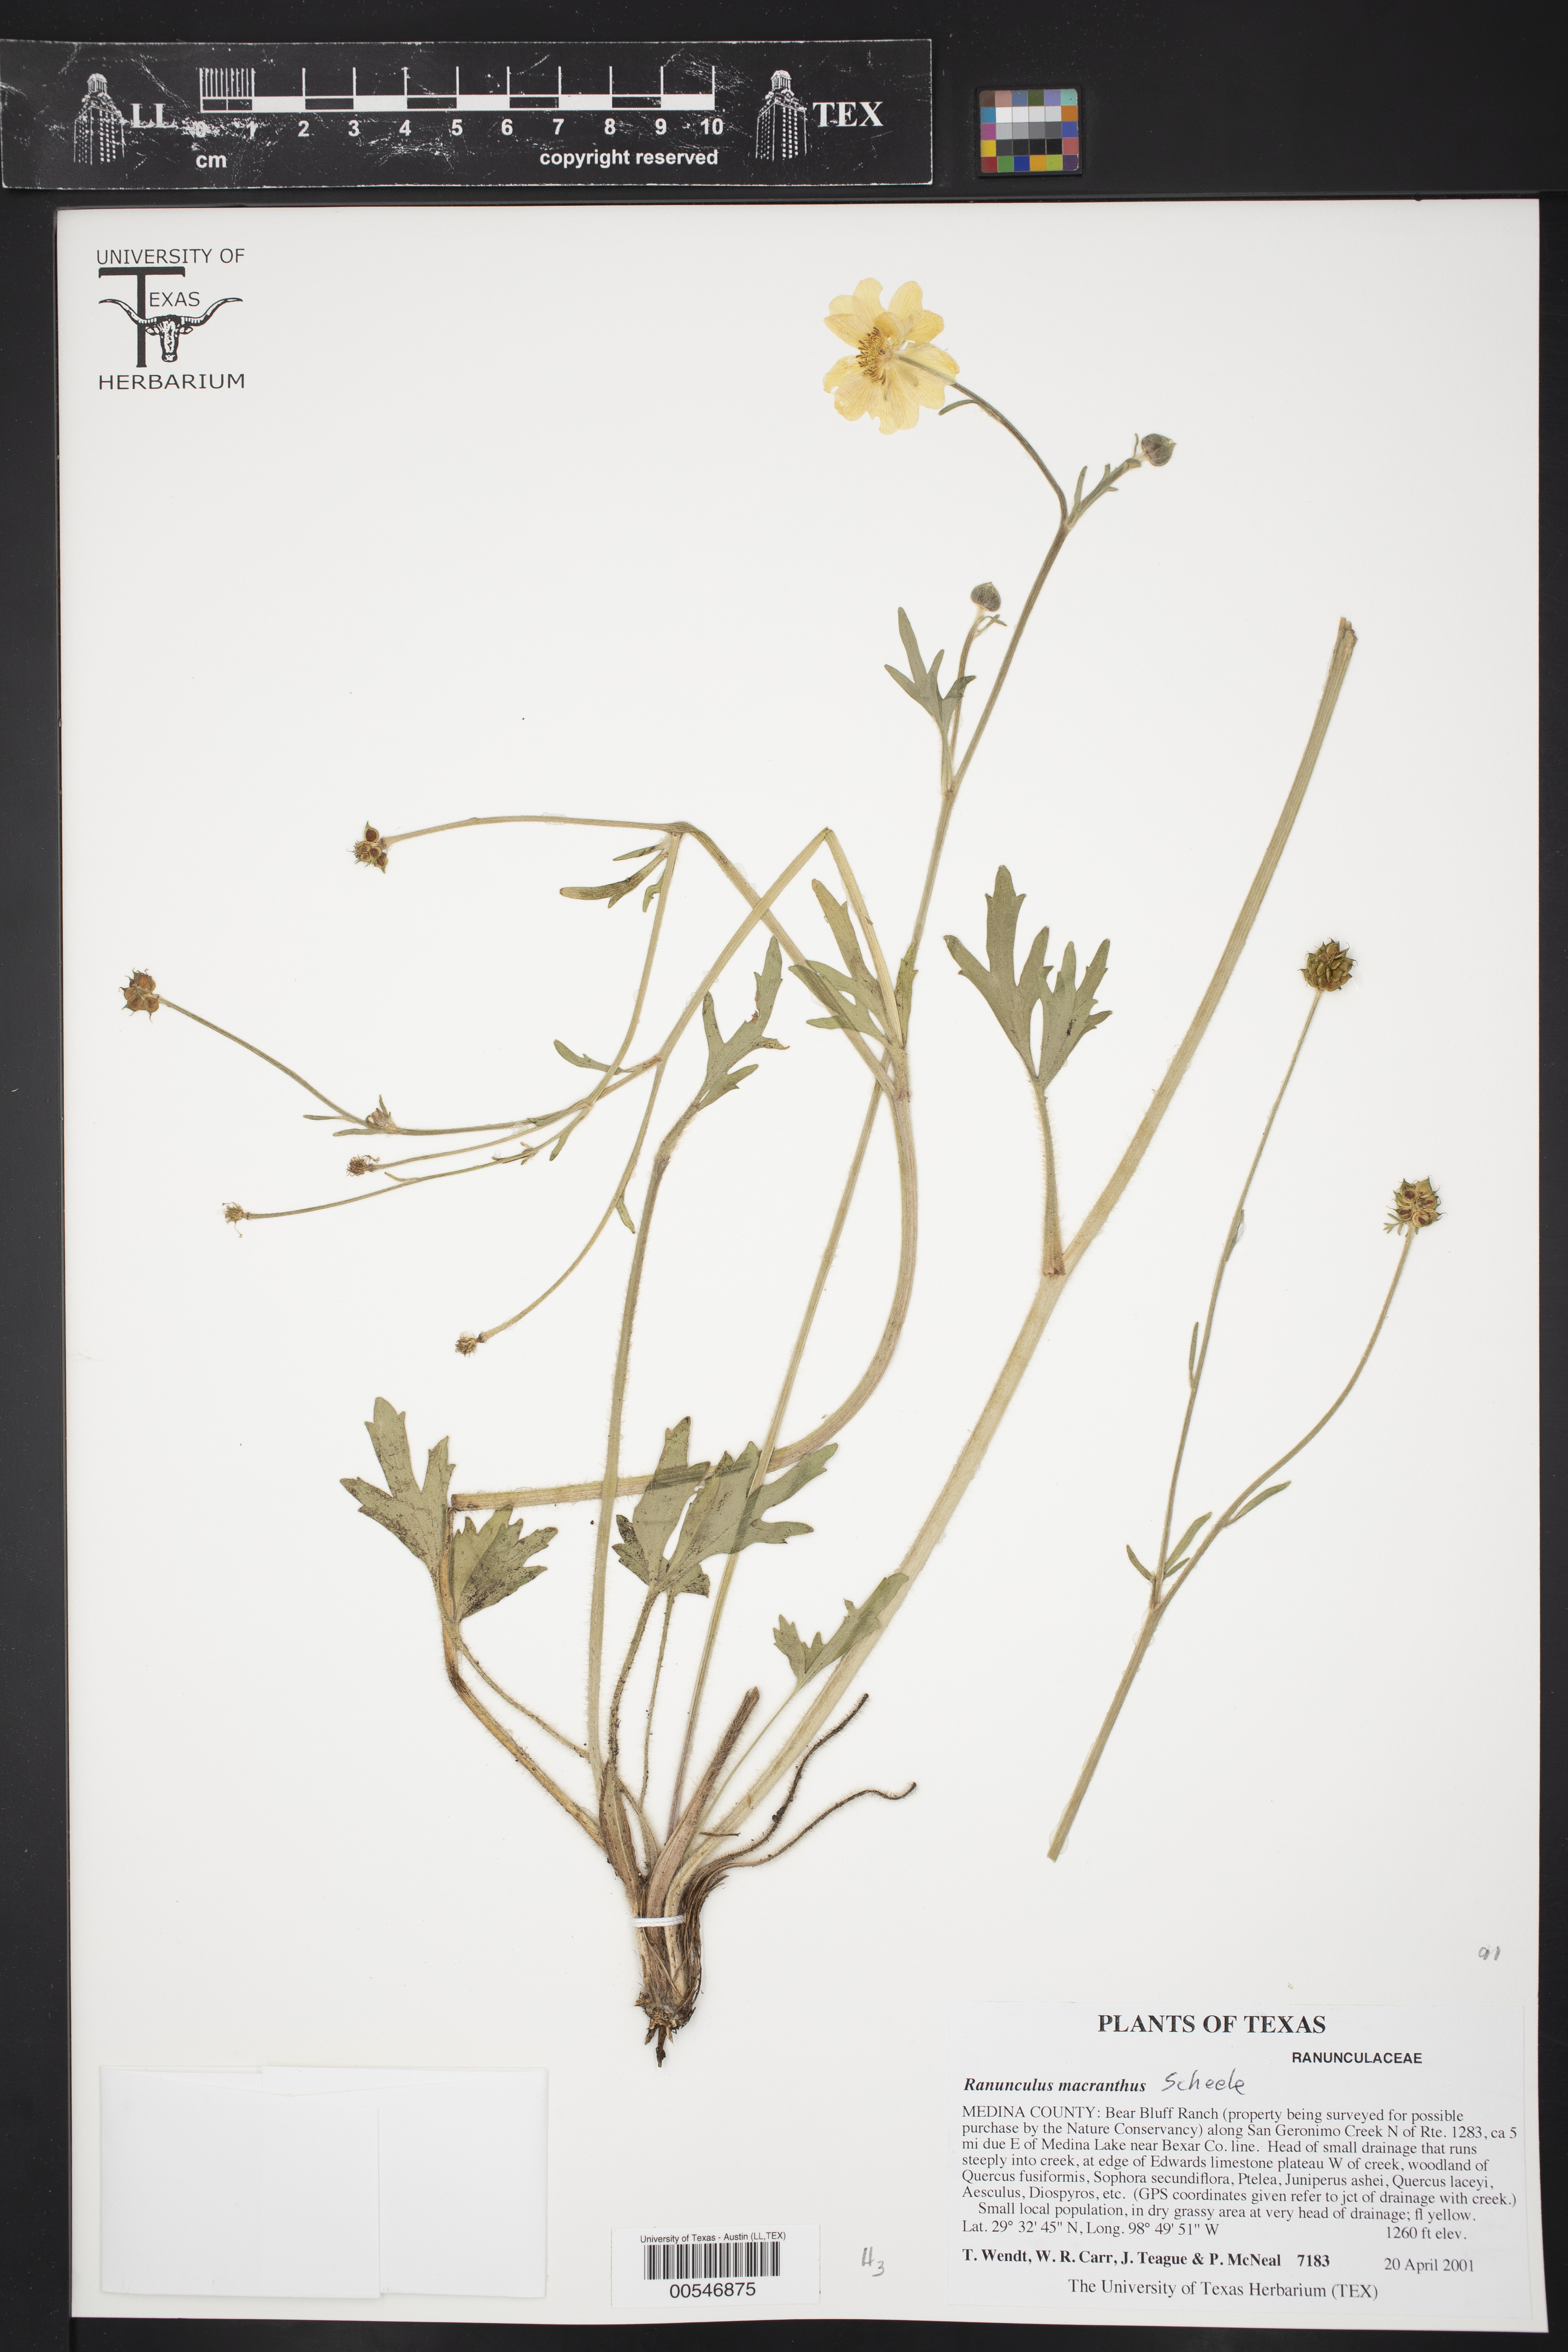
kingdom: Plantae
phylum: Tracheophyta
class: Magnoliopsida
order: Ranunculales
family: Ranunculaceae
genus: Ranunculus
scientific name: Ranunculus macranthus
